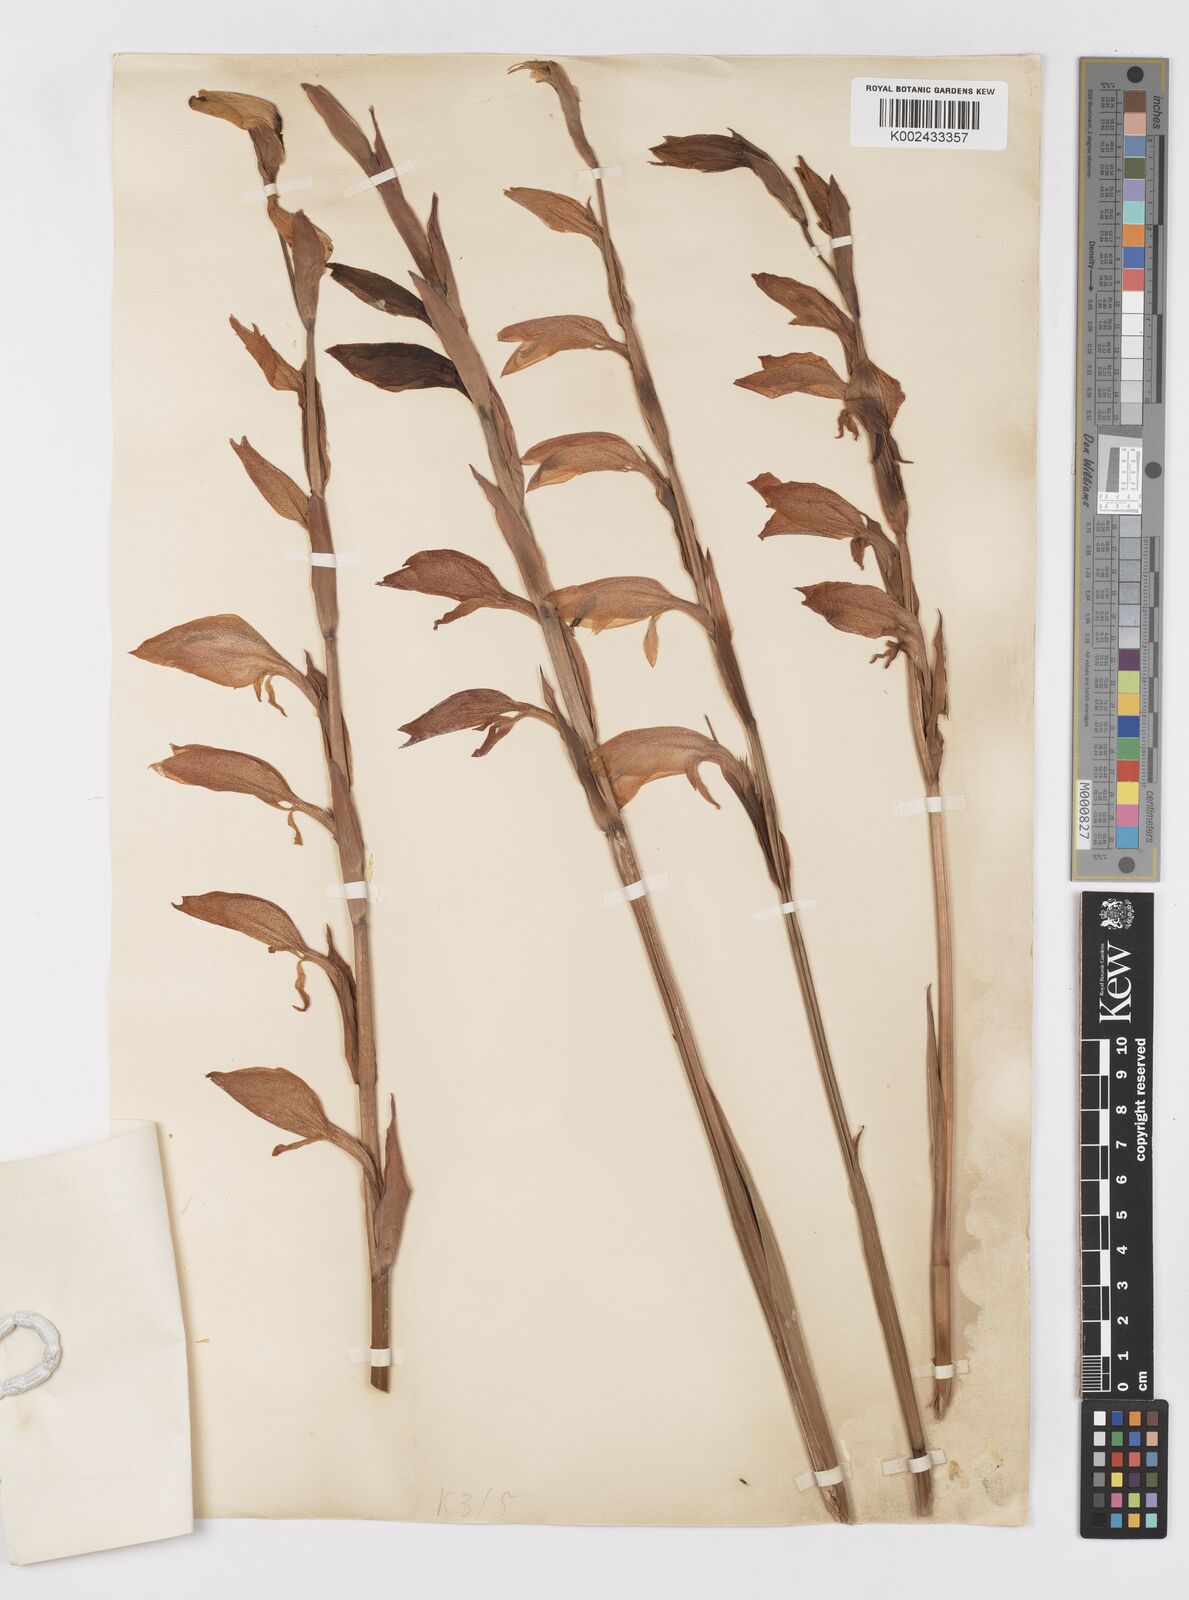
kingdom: Plantae
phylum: Tracheophyta
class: Liliopsida
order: Asparagales
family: Iridaceae
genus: Gladiolus
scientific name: Gladiolus dalenii
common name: Cornflag
